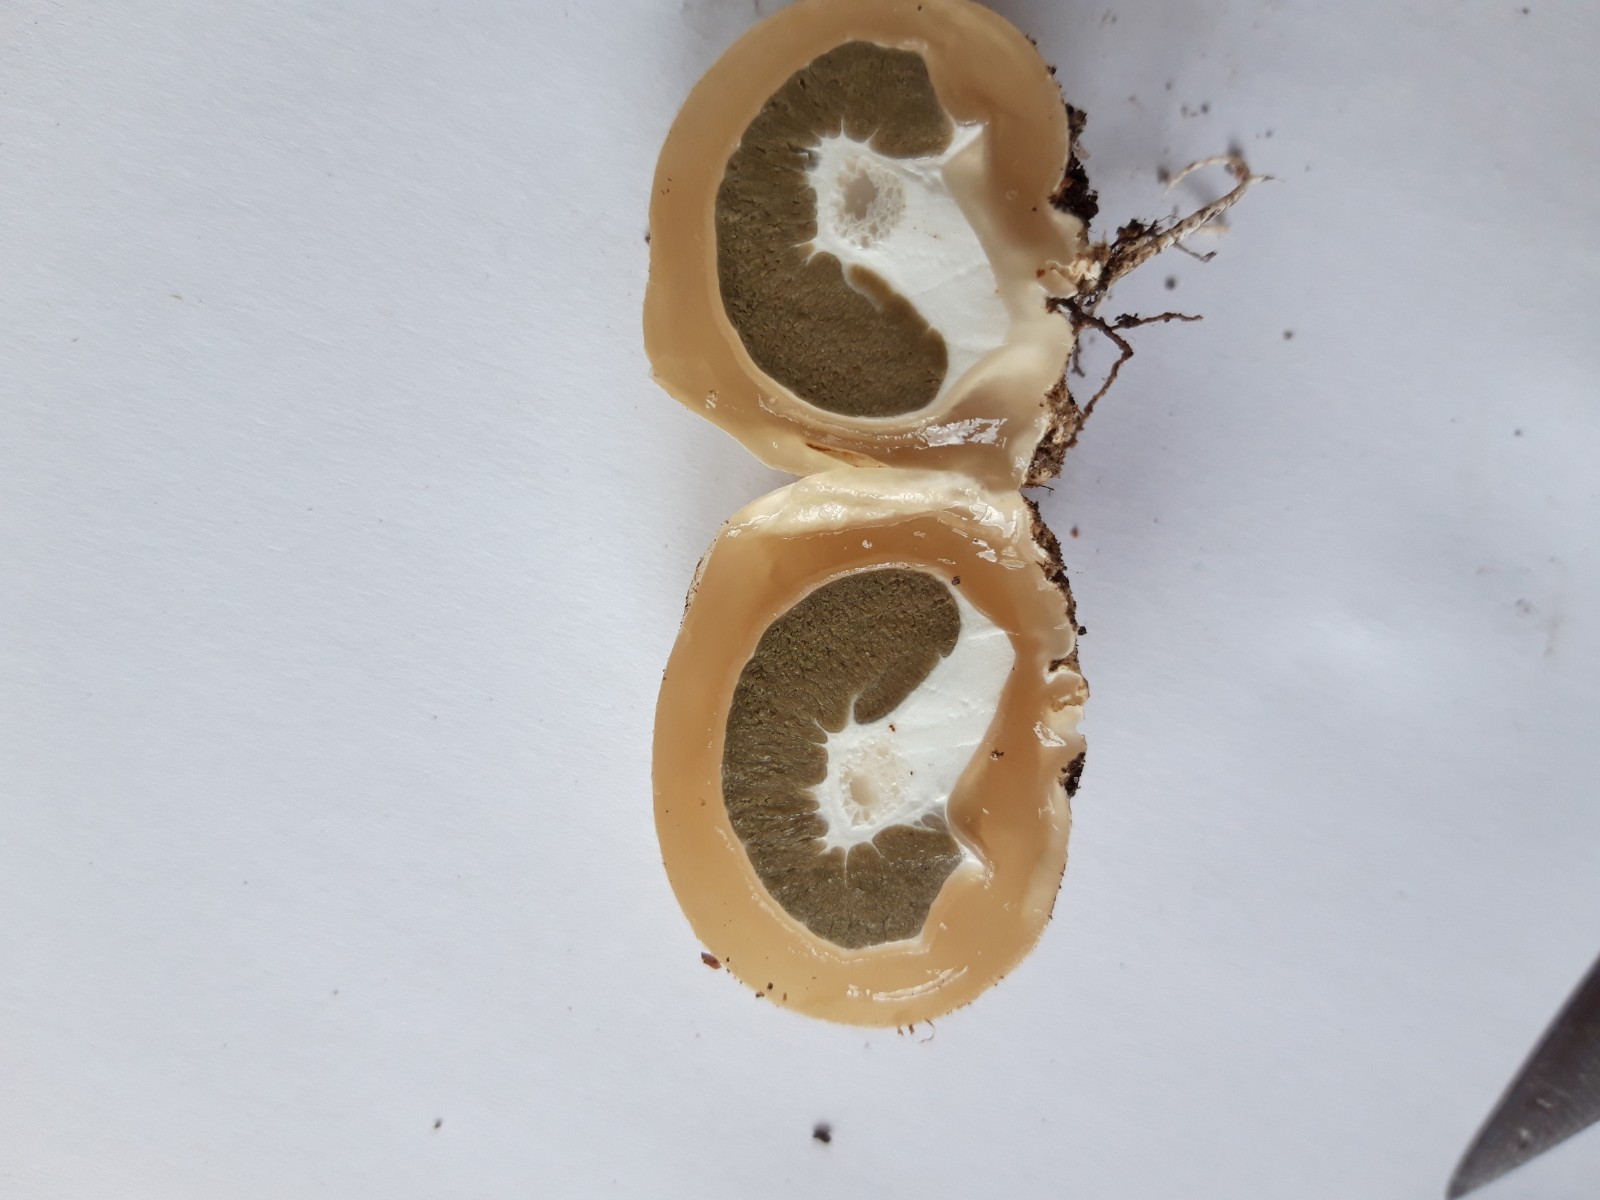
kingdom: Fungi
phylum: Basidiomycota
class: Agaricomycetes
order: Phallales
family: Phallaceae
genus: Phallus
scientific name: Phallus impudicus
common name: almindelig stinksvamp
